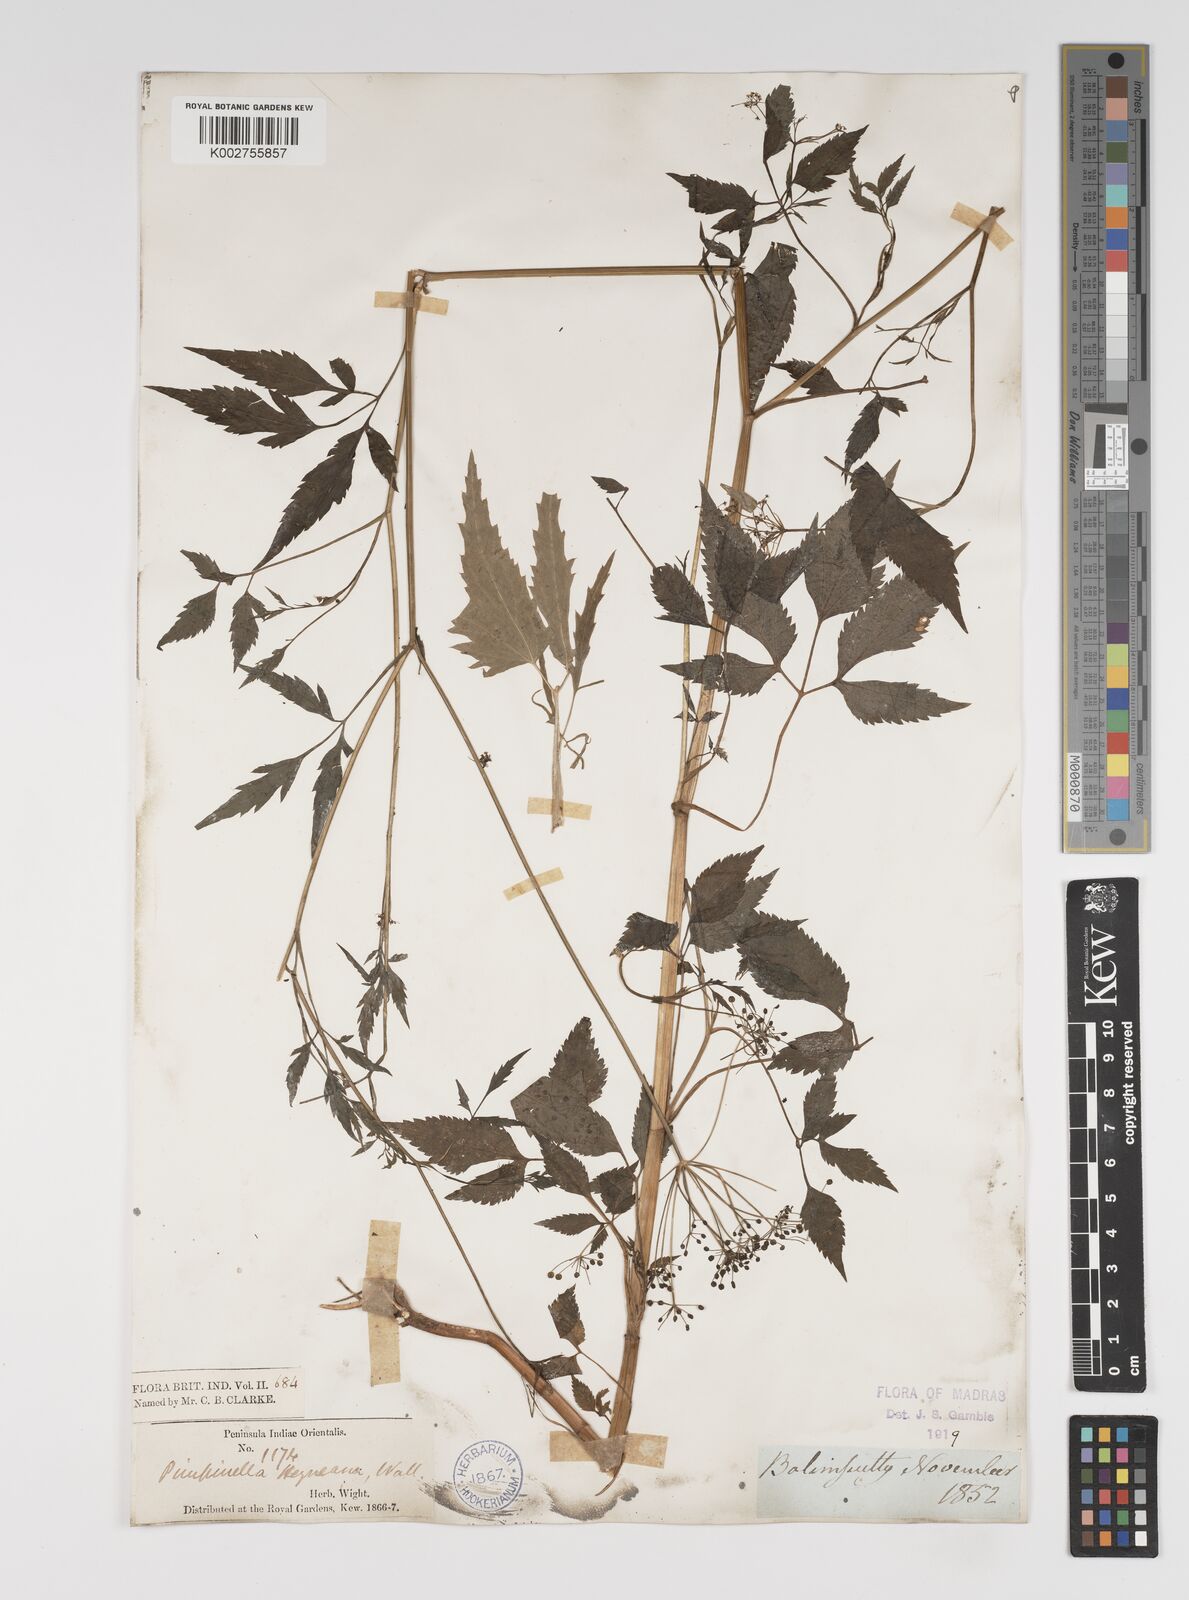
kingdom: Plantae
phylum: Tracheophyta
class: Magnoliopsida
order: Apiales
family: Apiaceae
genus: Pimpinella
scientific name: Pimpinella heyneana
